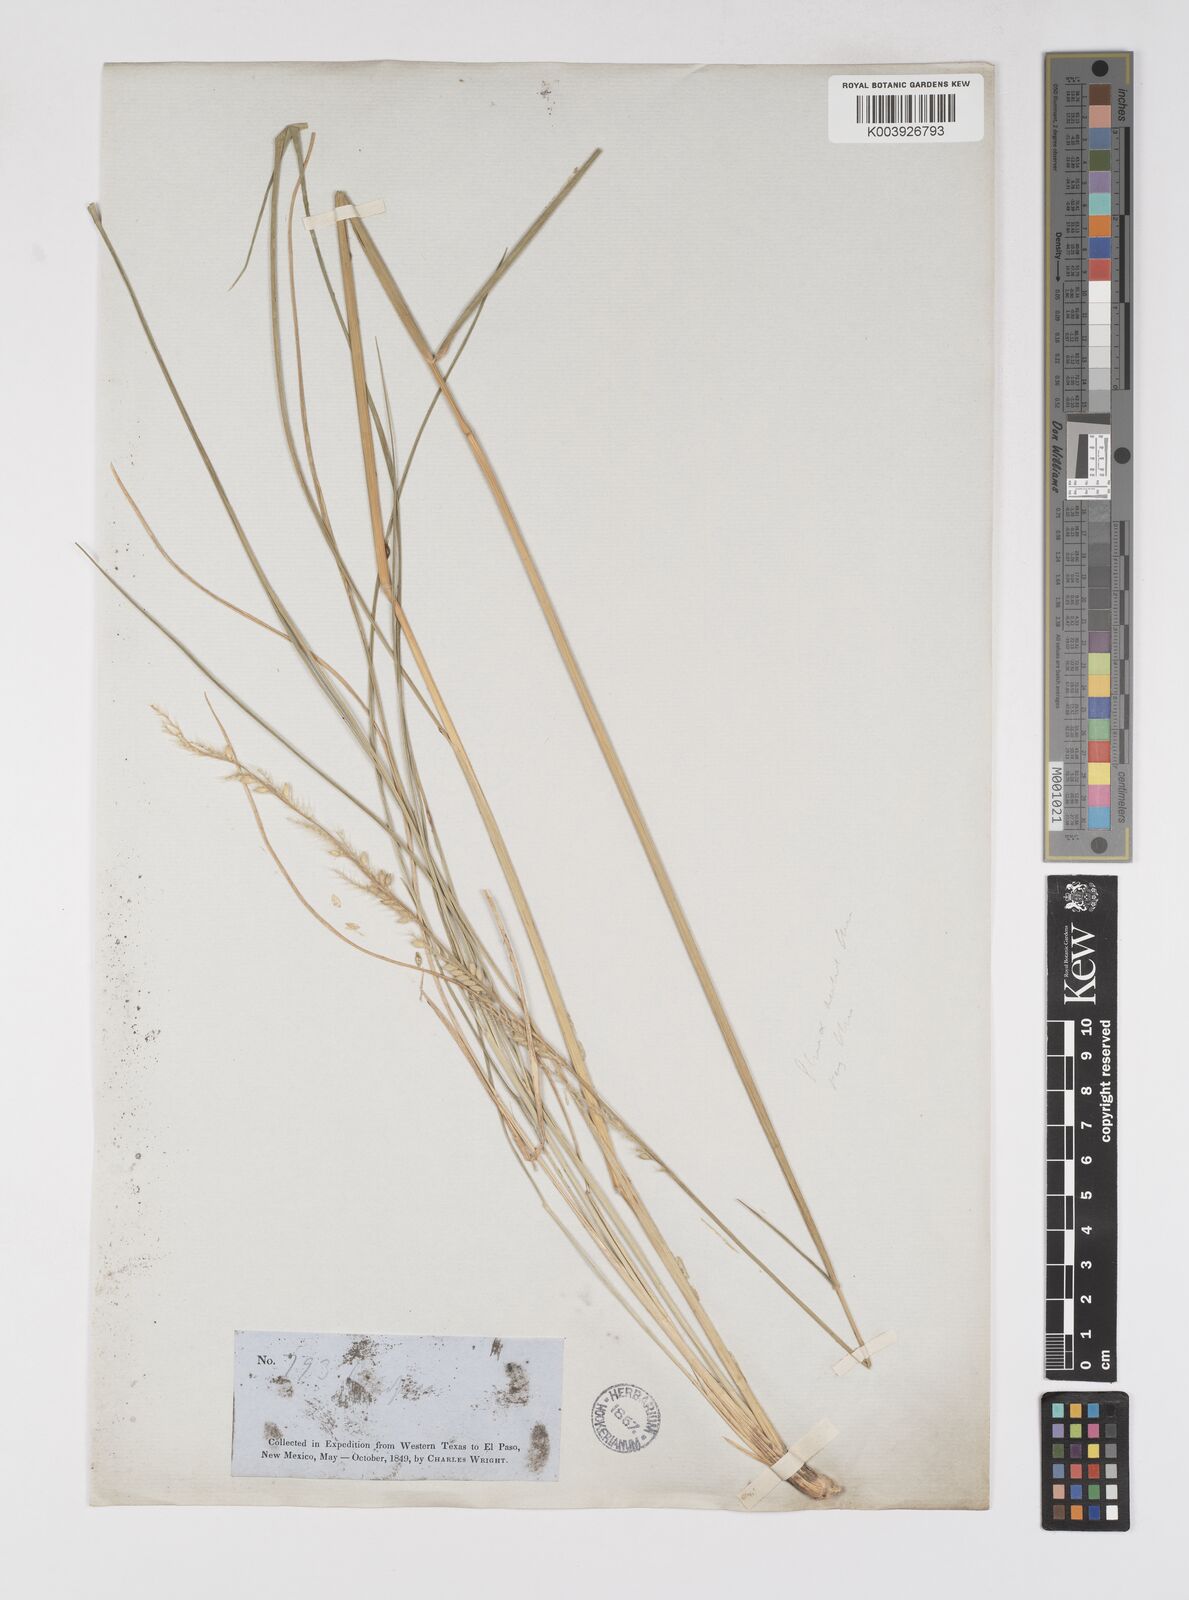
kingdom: Plantae
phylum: Tracheophyta
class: Liliopsida
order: Poales
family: Poaceae
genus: Eriochloa
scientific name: Eriochloa sericea
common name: Texas cup grass
